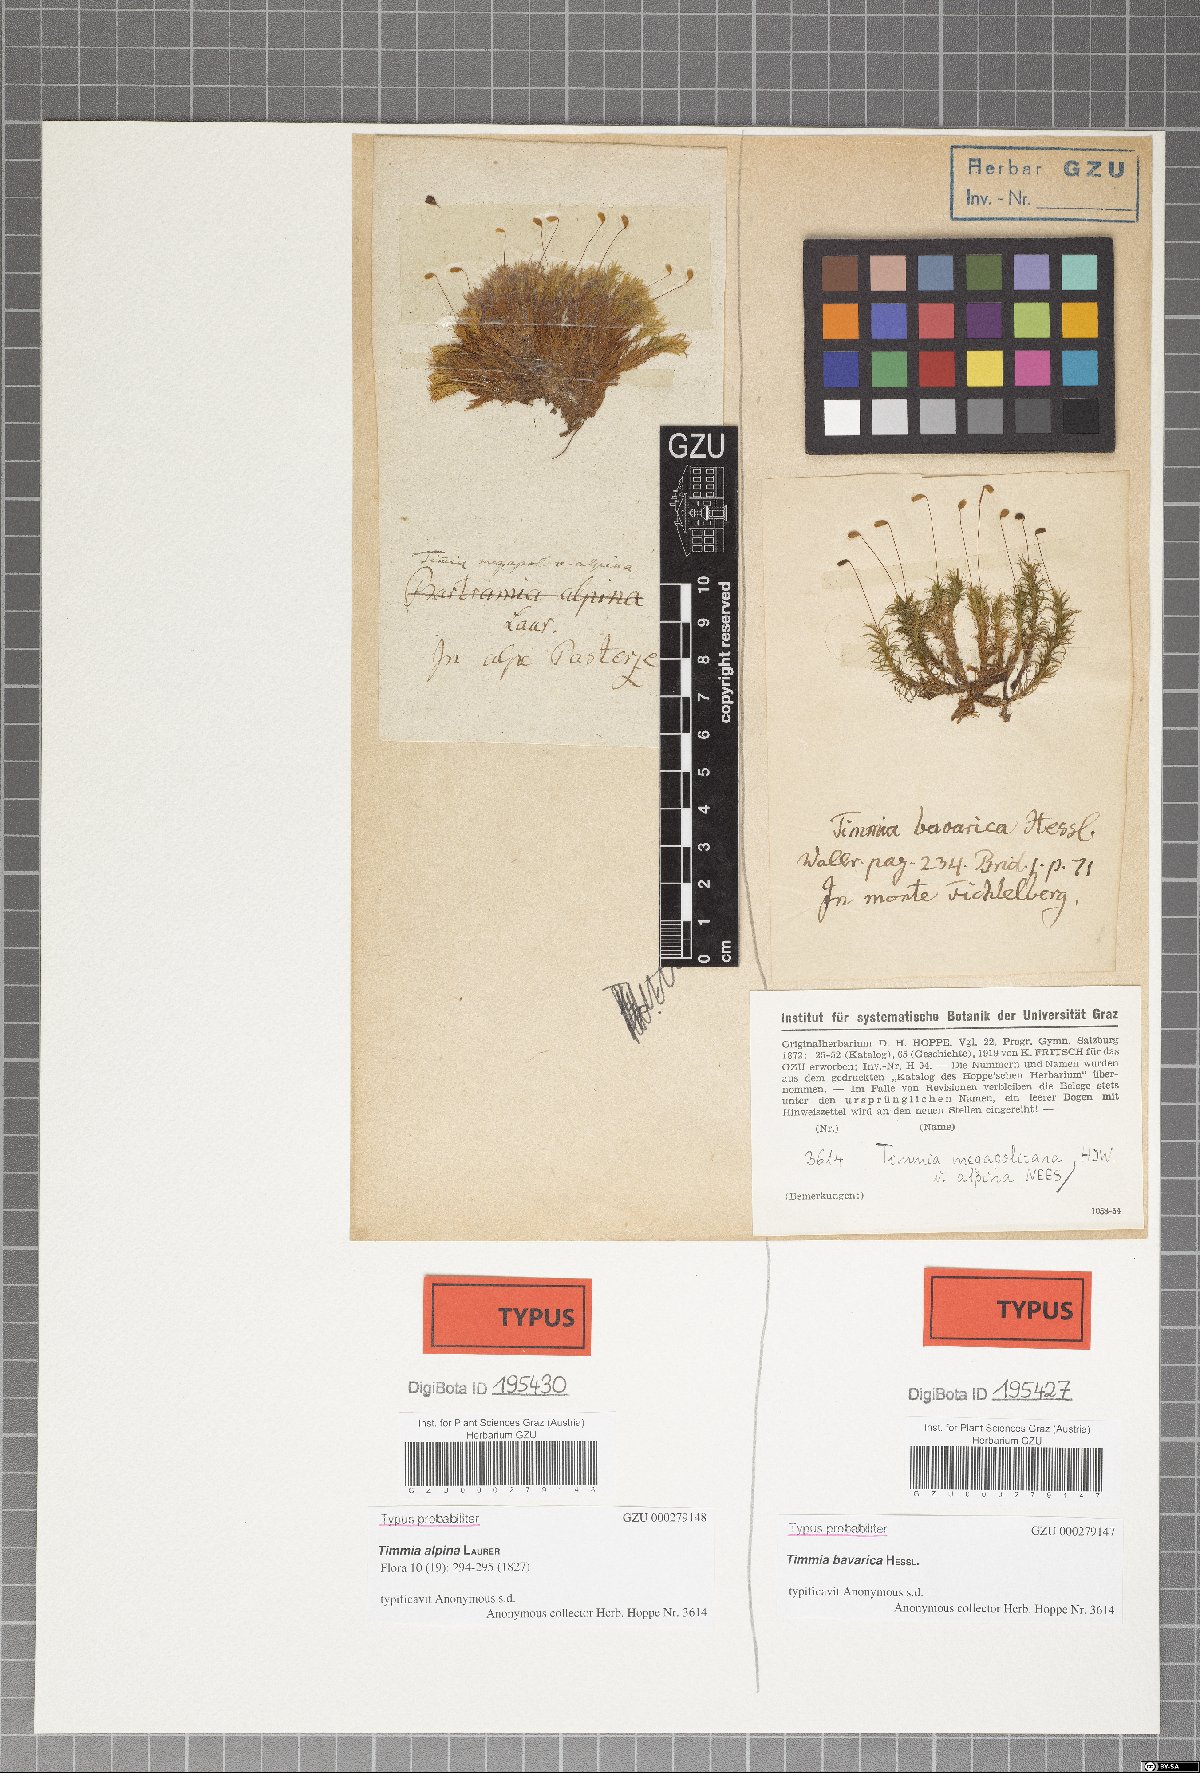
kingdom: Plantae
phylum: Bryophyta
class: Bryopsida
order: Timmiales
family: Timmiaceae
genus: Timmia
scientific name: Timmia bavarica
